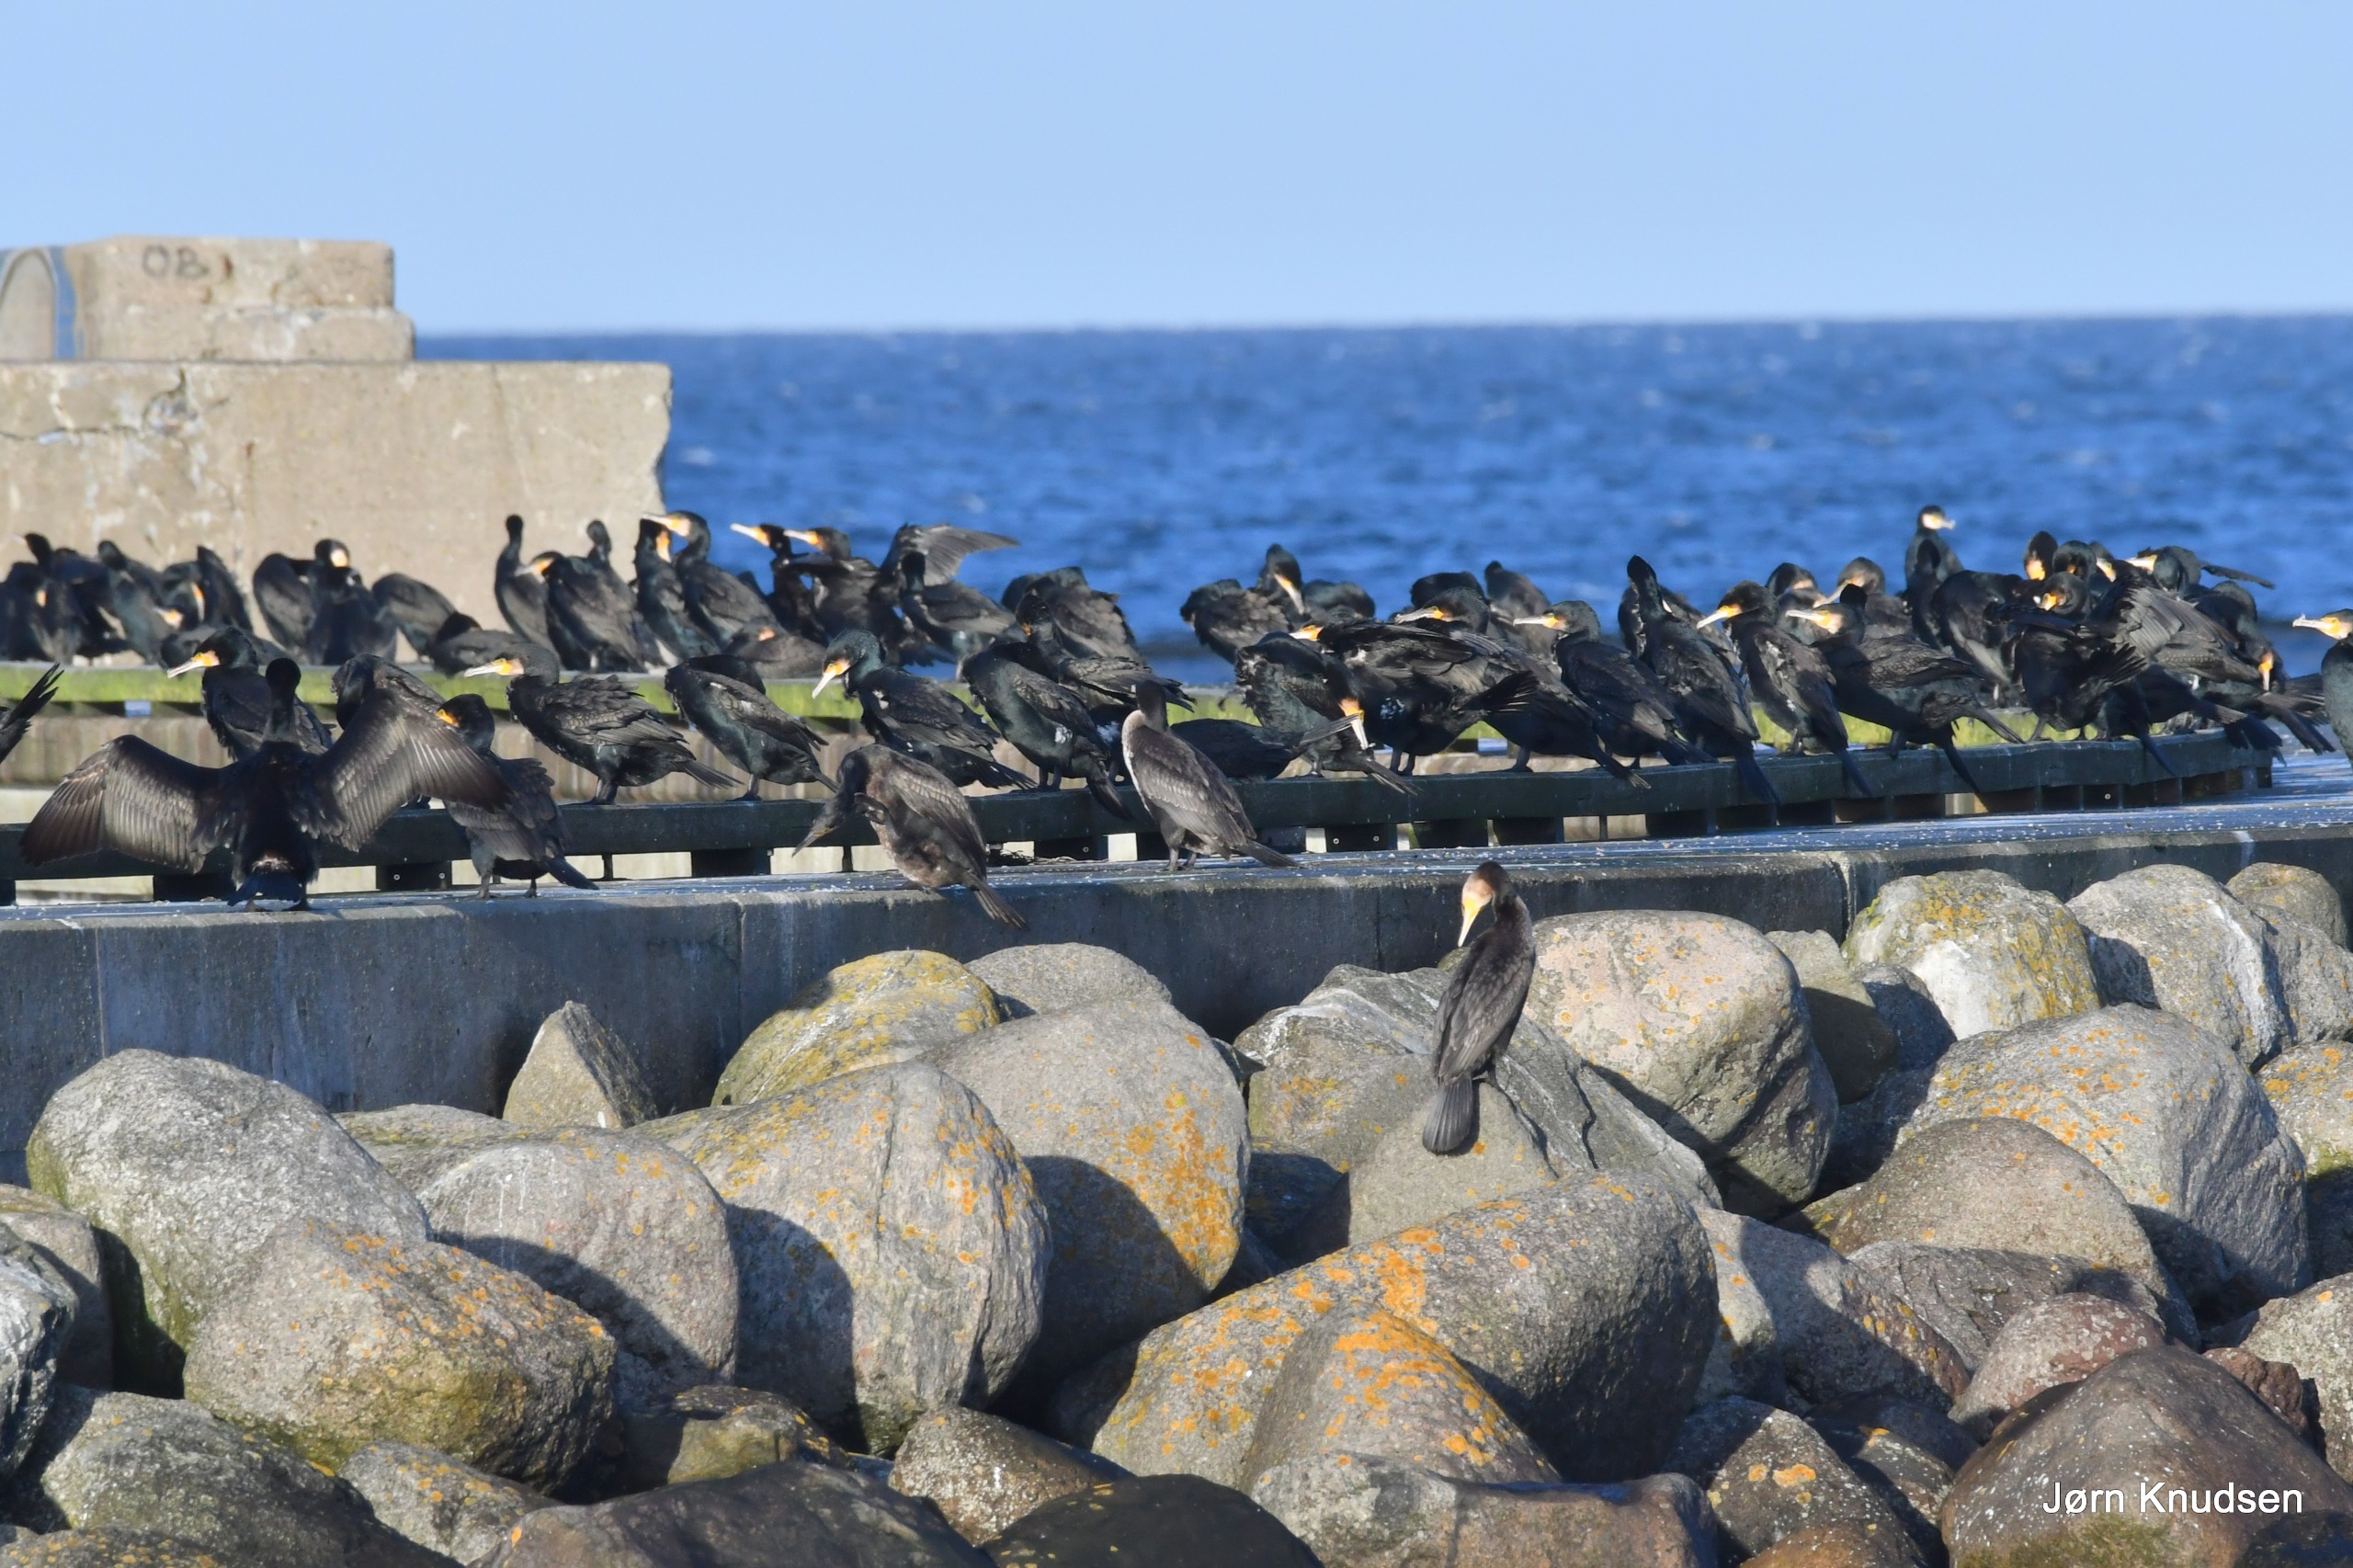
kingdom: Animalia
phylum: Chordata
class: Aves
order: Suliformes
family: Phalacrocoracidae
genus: Phalacrocorax
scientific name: Phalacrocorax carbo
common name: Skarv
